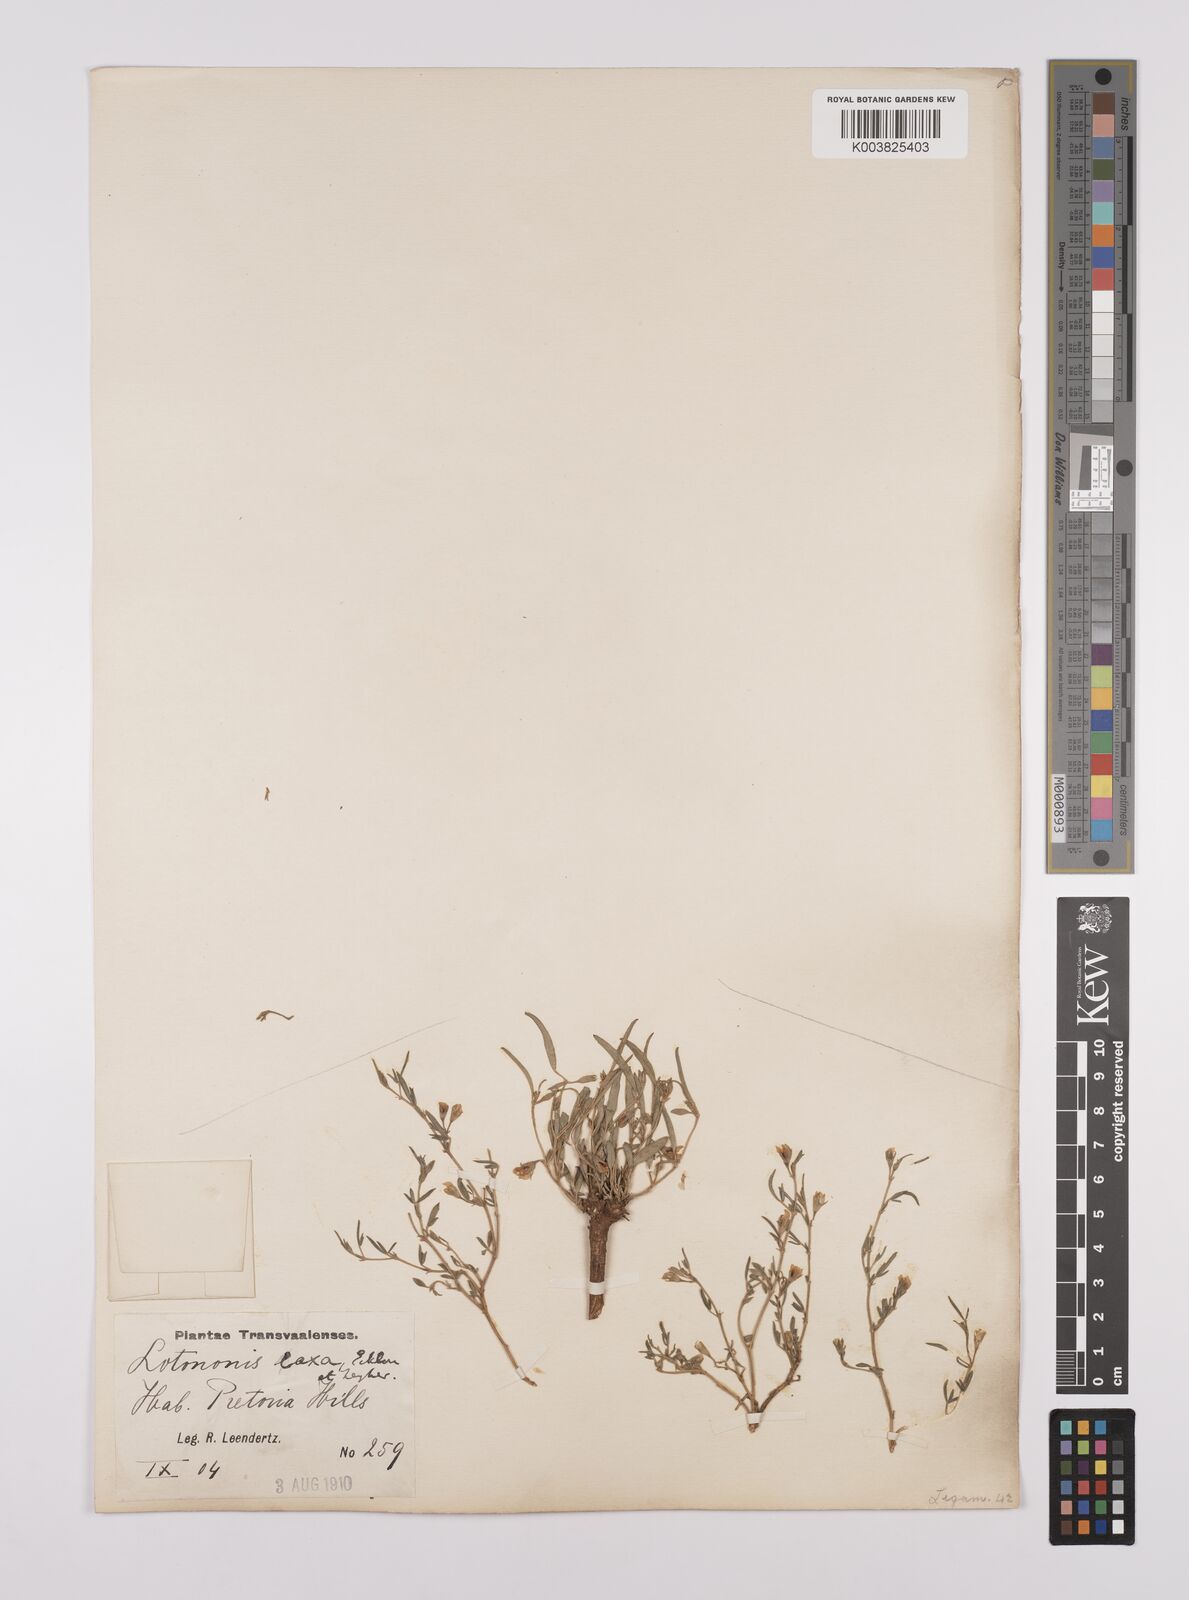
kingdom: Plantae
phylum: Tracheophyta
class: Magnoliopsida
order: Fabales
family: Fabaceae
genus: Lotononis
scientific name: Lotononis laxa
